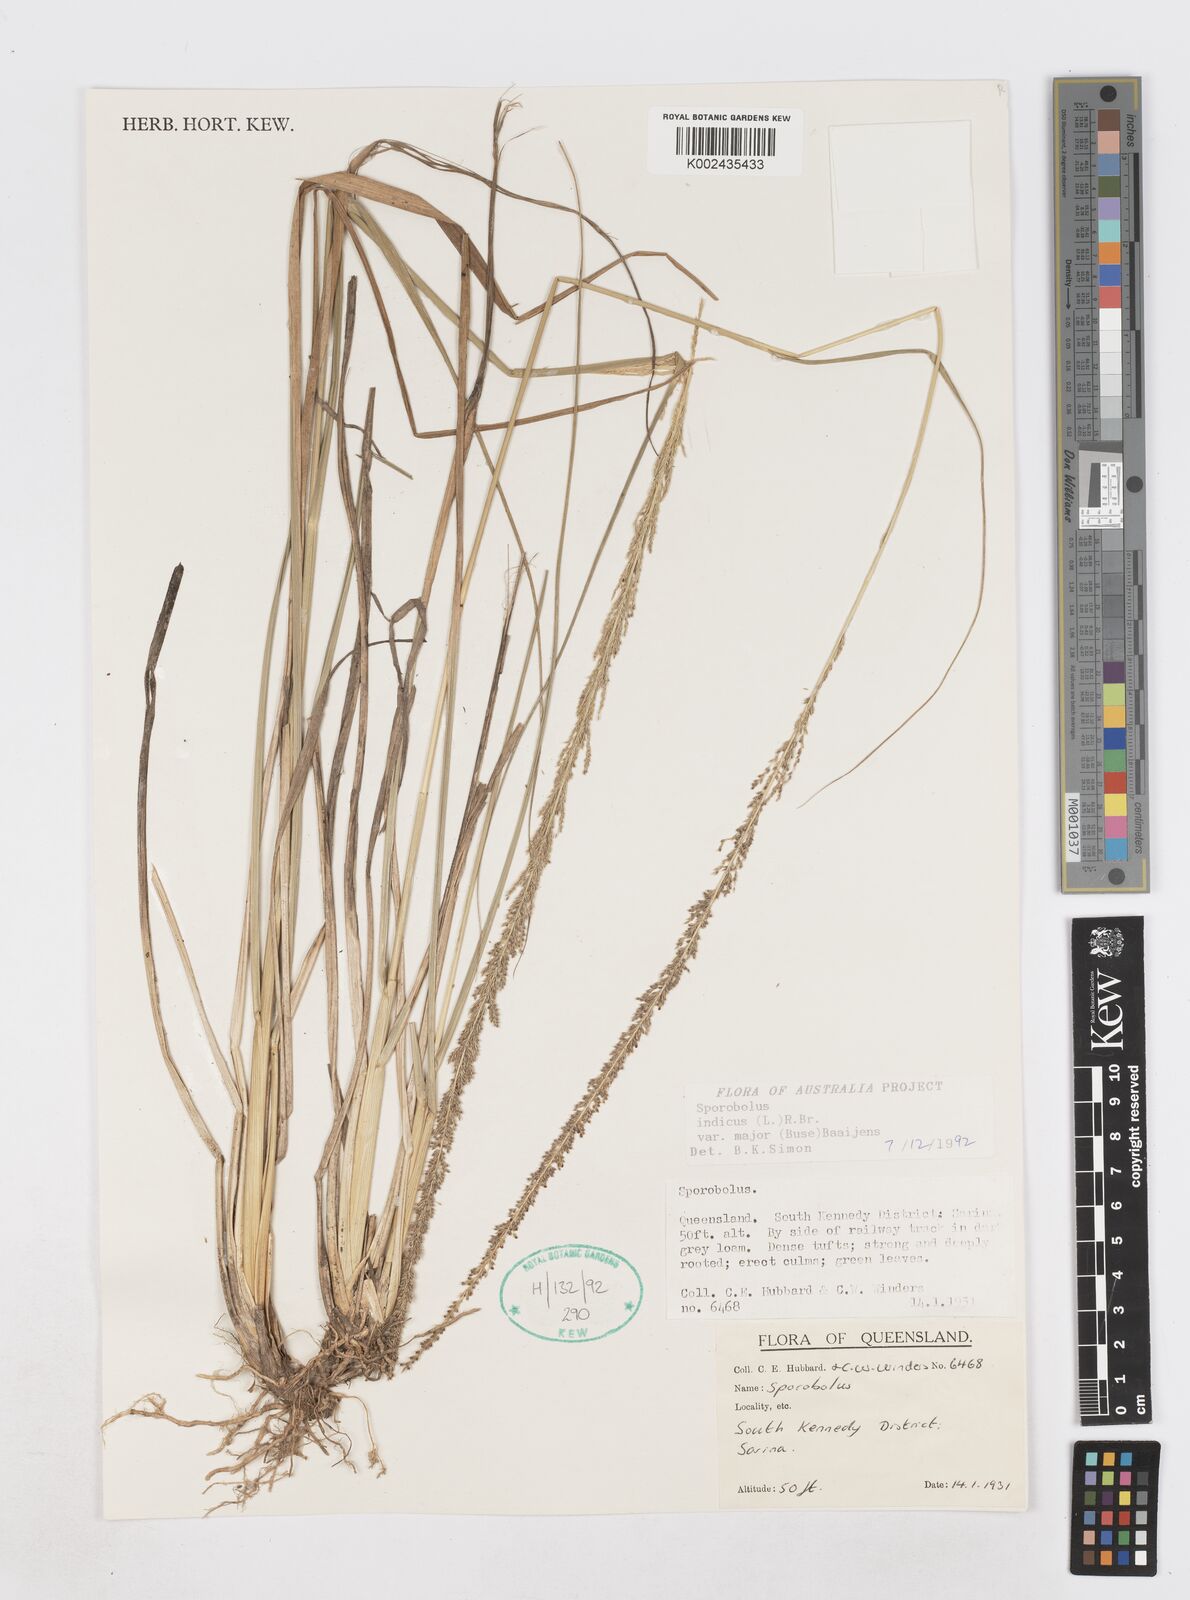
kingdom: Plantae
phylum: Tracheophyta
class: Liliopsida
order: Poales
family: Poaceae
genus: Sporobolus
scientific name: Sporobolus fertilis
